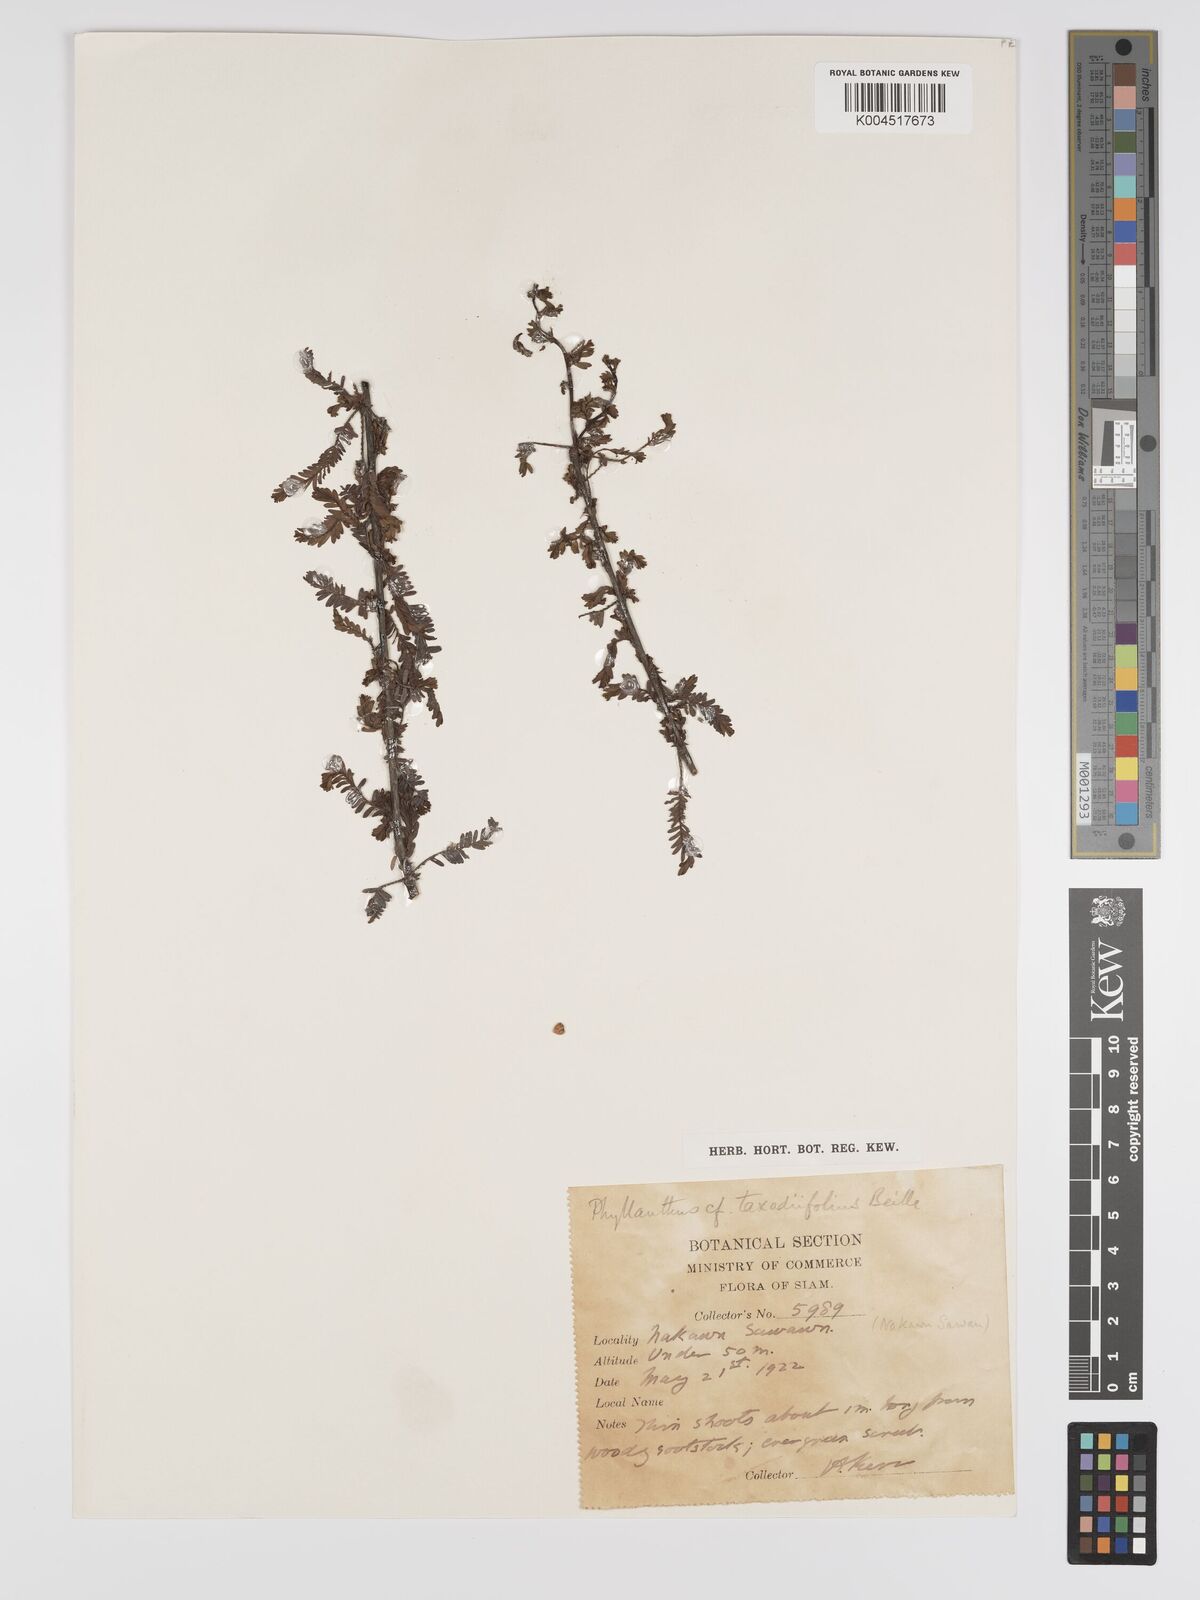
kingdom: Plantae
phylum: Tracheophyta
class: Magnoliopsida
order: Malpighiales
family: Phyllanthaceae
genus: Phyllanthus
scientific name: Phyllanthus taxodiifolius
